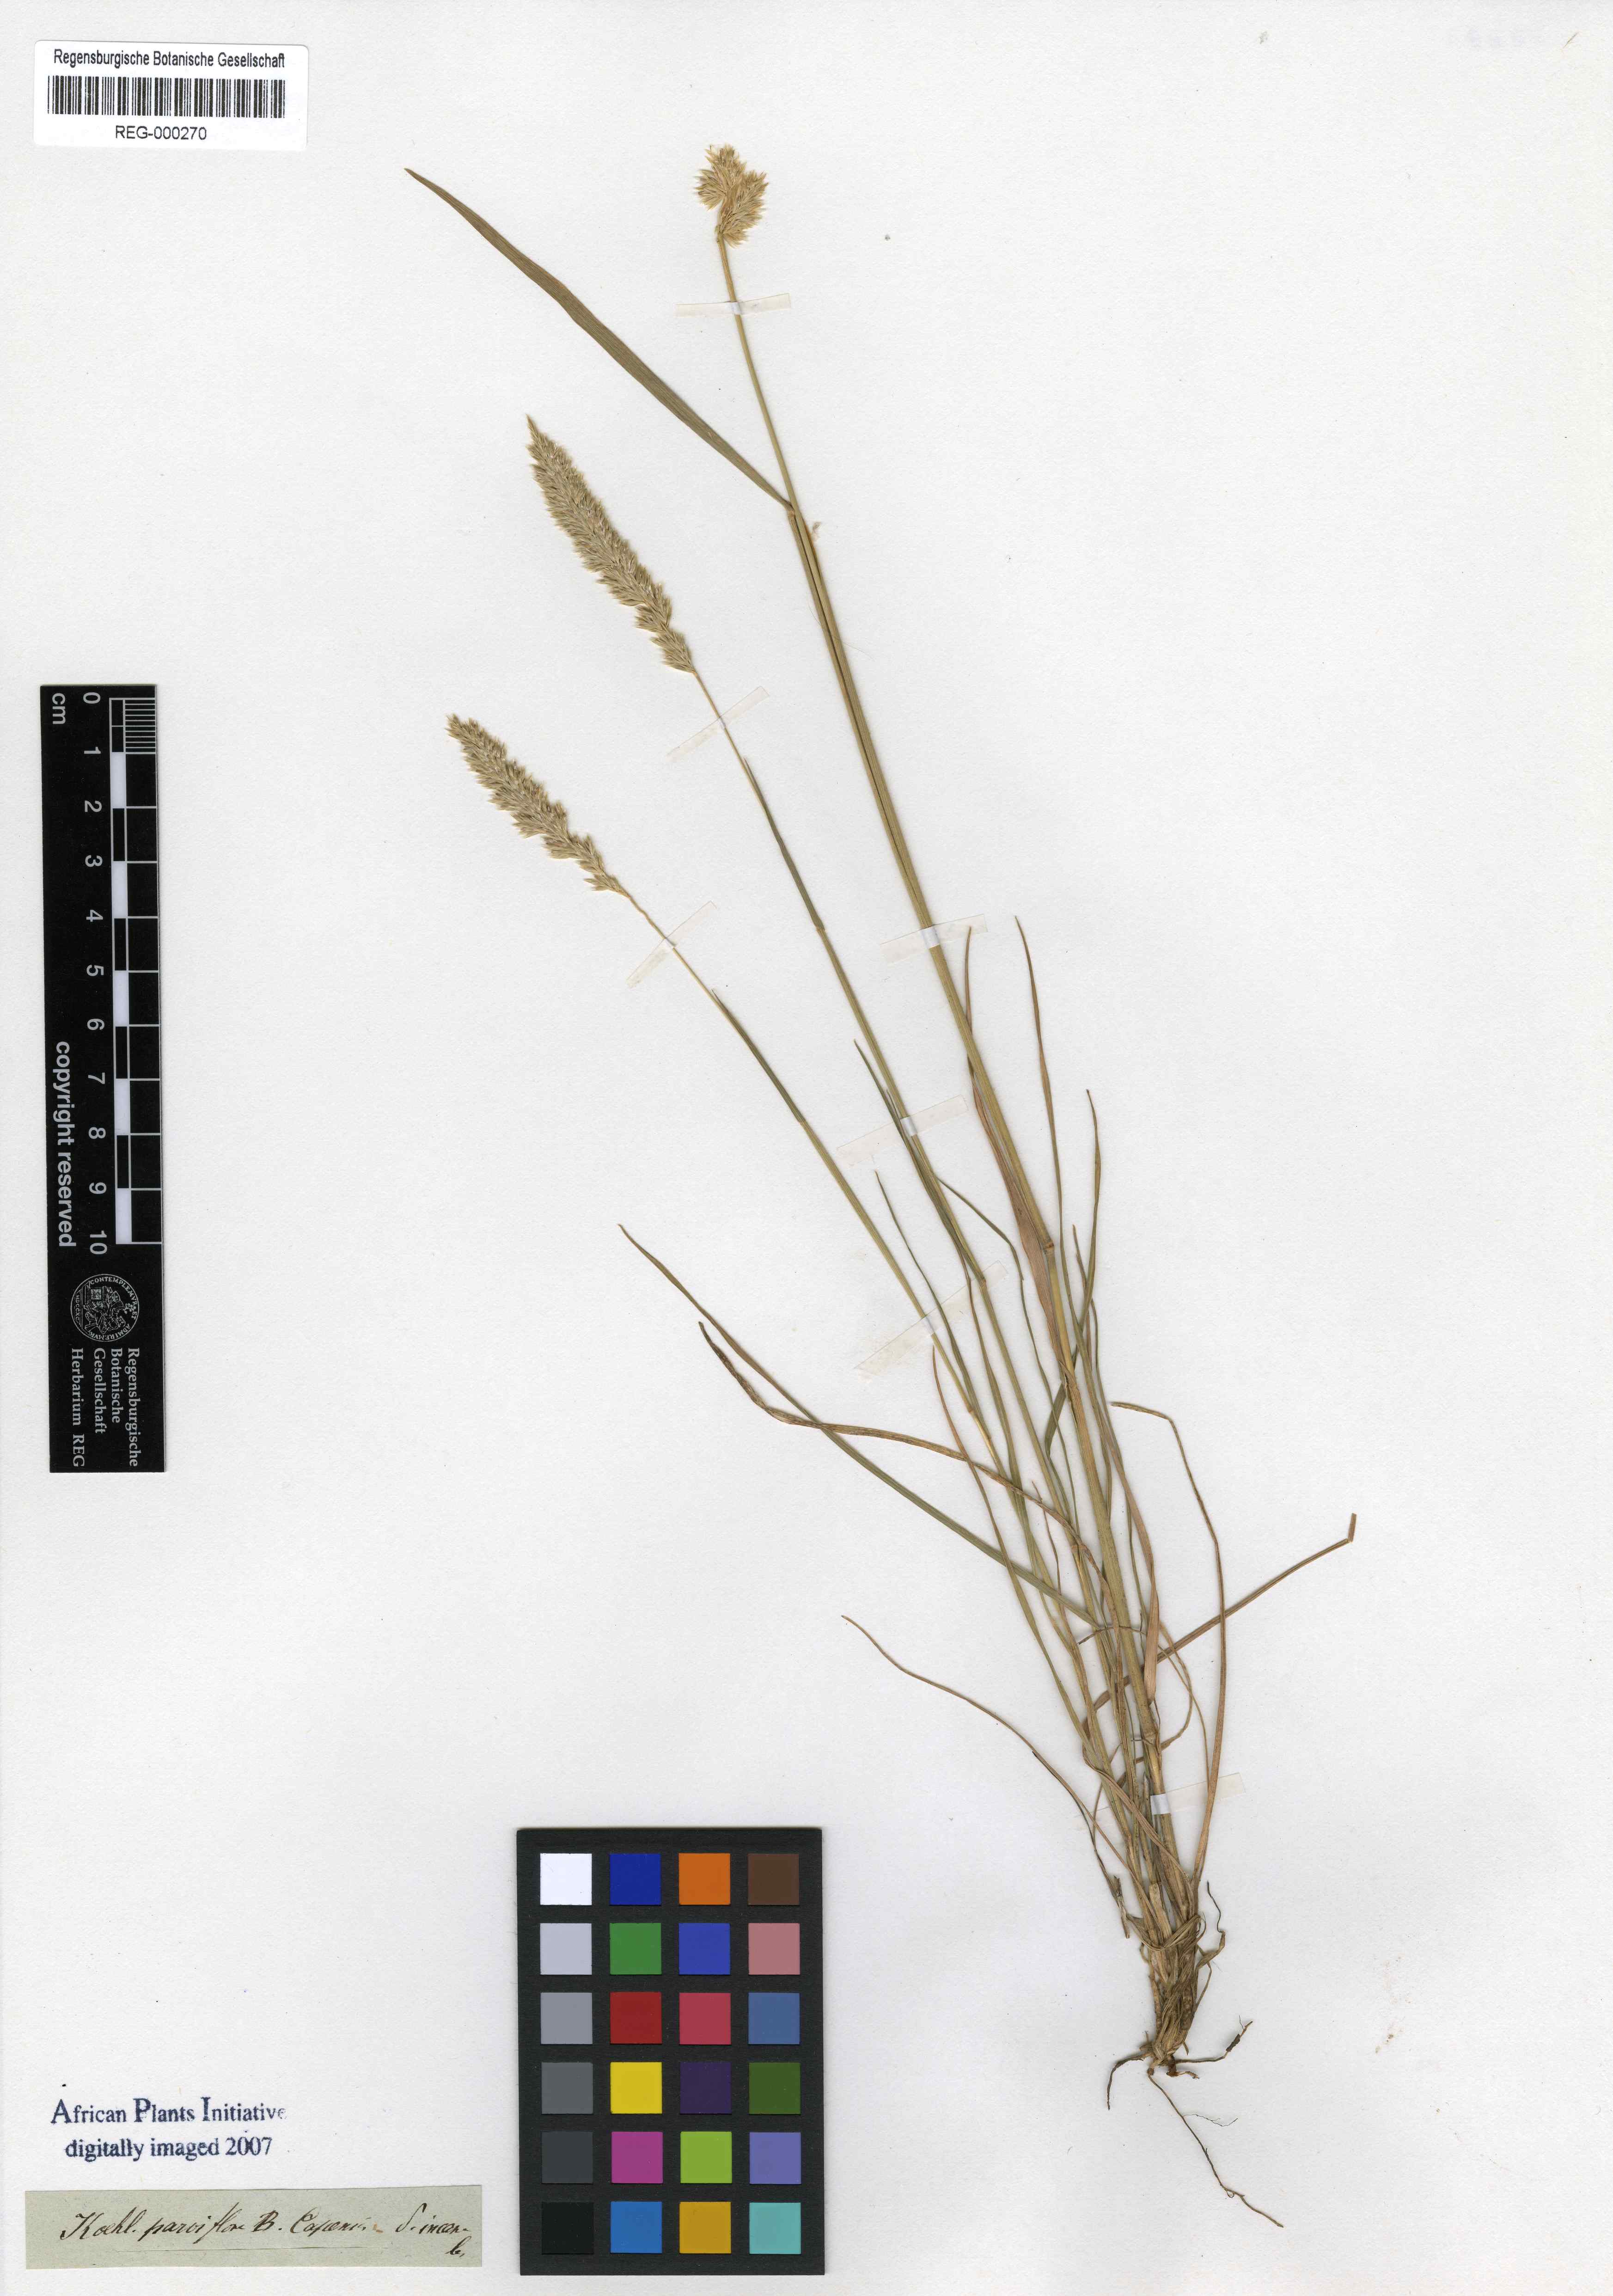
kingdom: Plantae
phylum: Tracheophyta
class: Liliopsida
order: Poales
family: Poaceae
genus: Koeleria
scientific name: Koeleria macrantha
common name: Crested hair-grass
